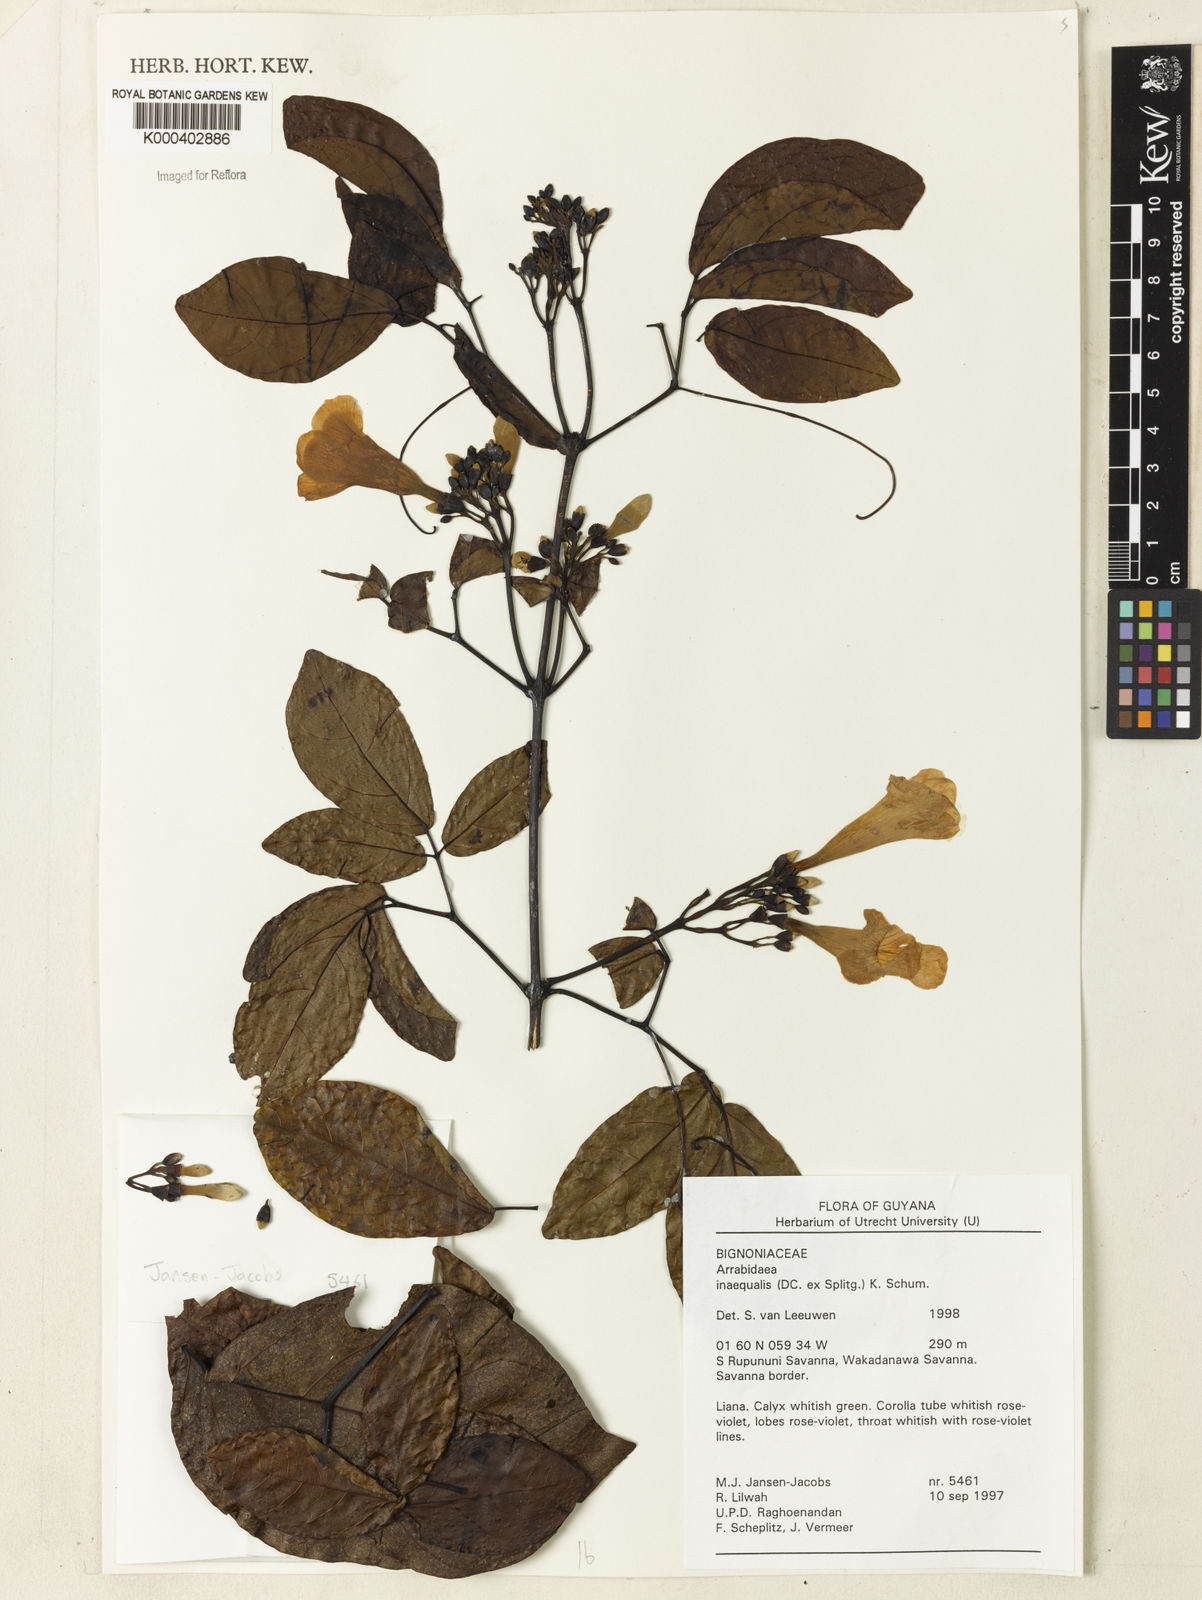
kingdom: Plantae
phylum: Tracheophyta
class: Magnoliopsida
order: Lamiales
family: Bignoniaceae
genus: Cuspidaria
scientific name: Cuspidaria inaequalis
